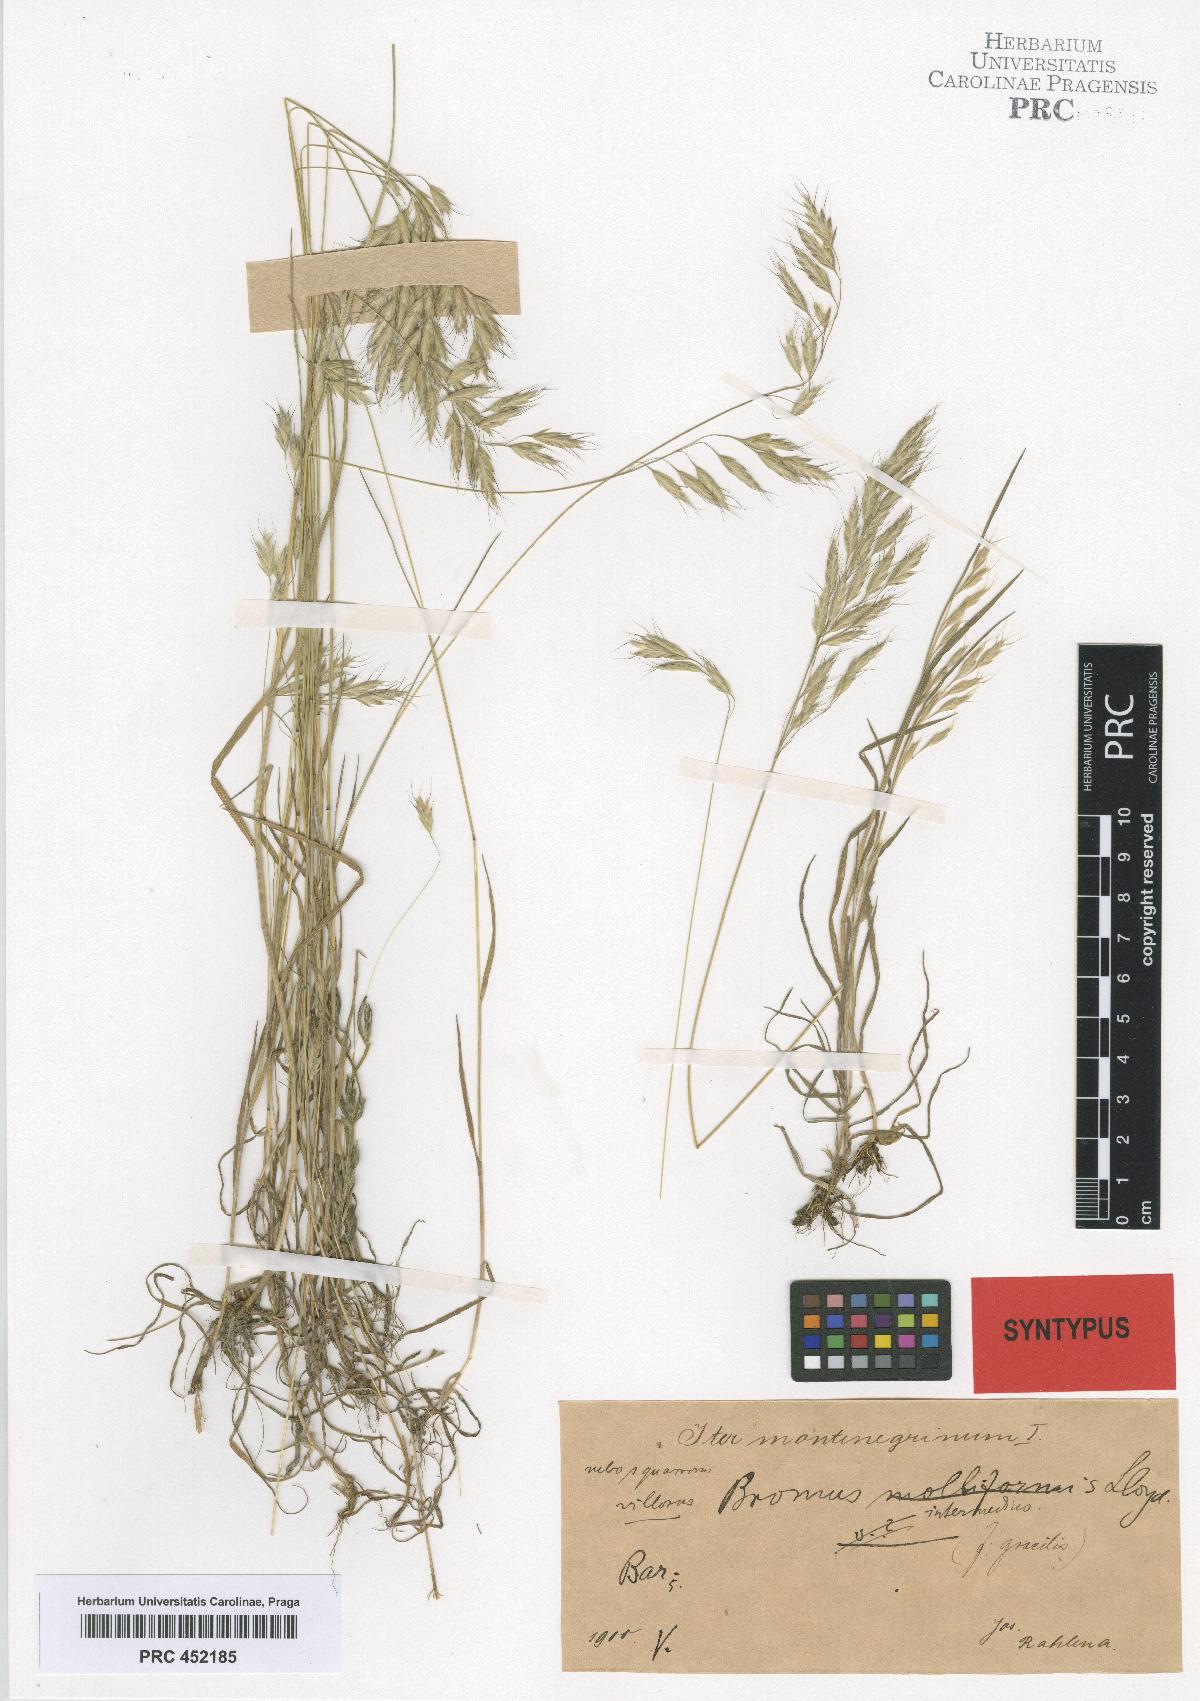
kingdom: Plantae
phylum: Tracheophyta
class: Liliopsida
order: Poales
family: Poaceae
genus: Bromus
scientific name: Bromus intermedius
